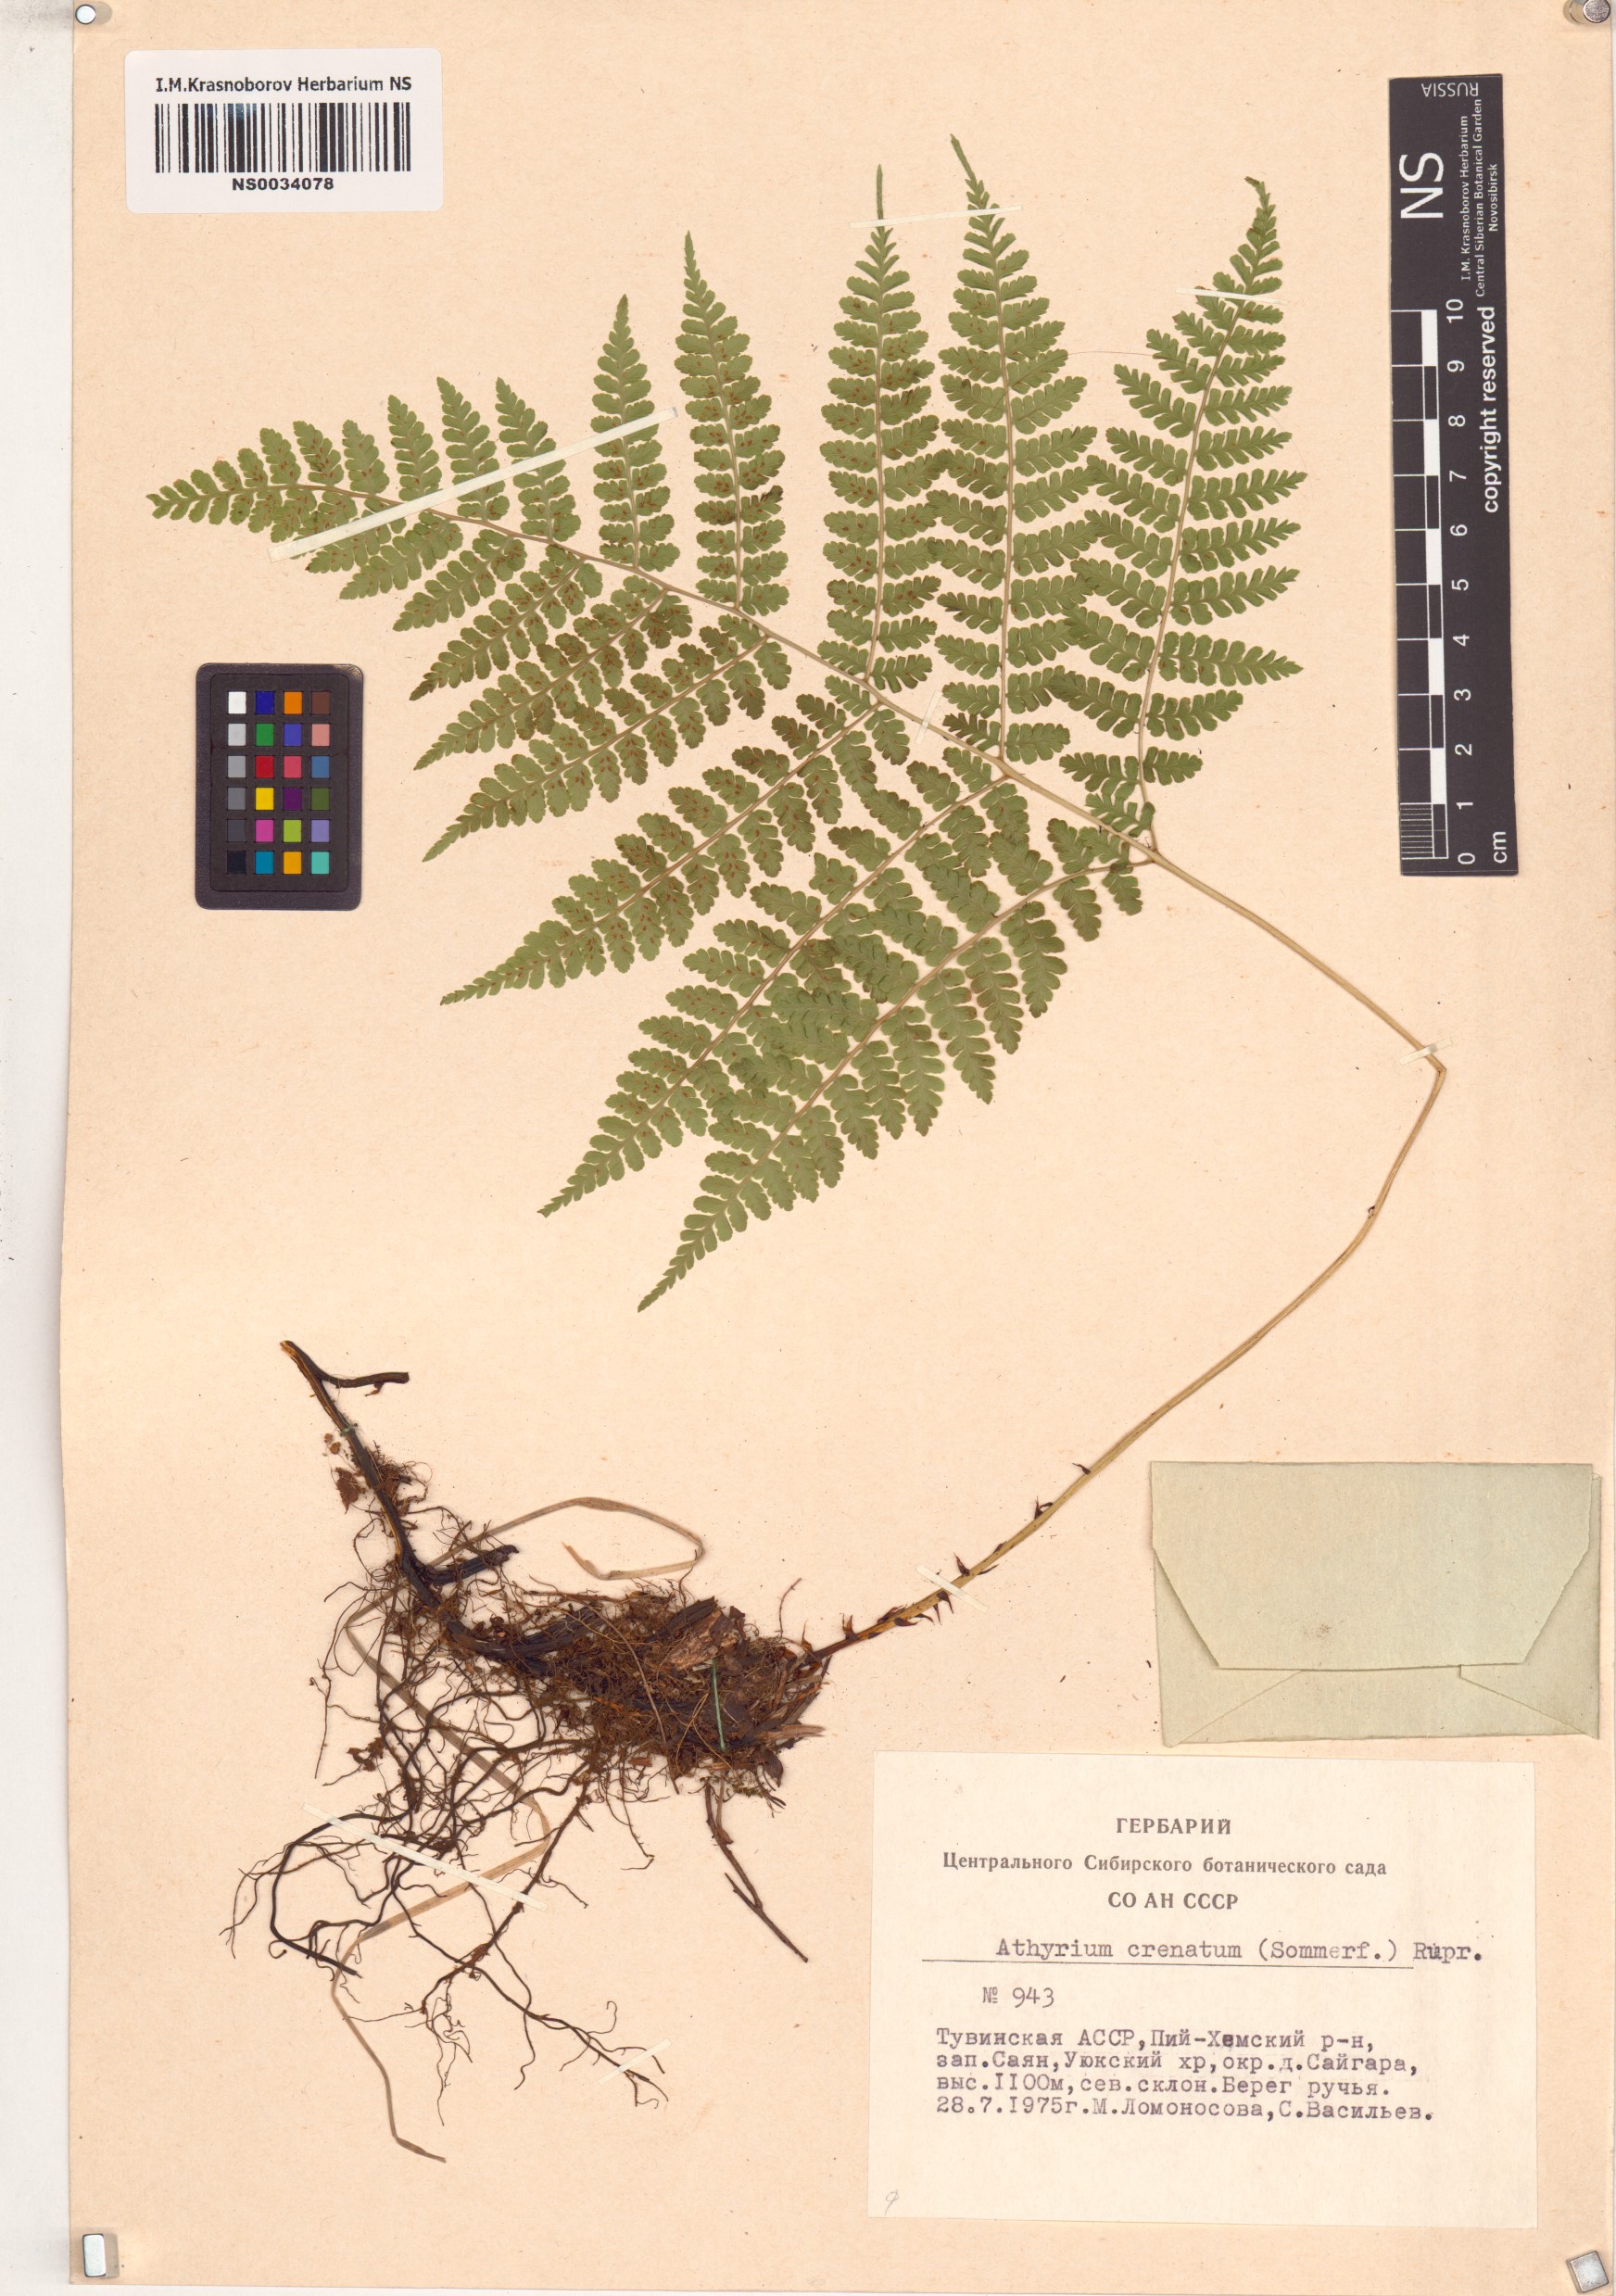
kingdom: Plantae
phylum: Tracheophyta
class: Polypodiopsida
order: Polypodiales
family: Athyriaceae
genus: Diplazium
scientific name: Diplazium sibiricum
